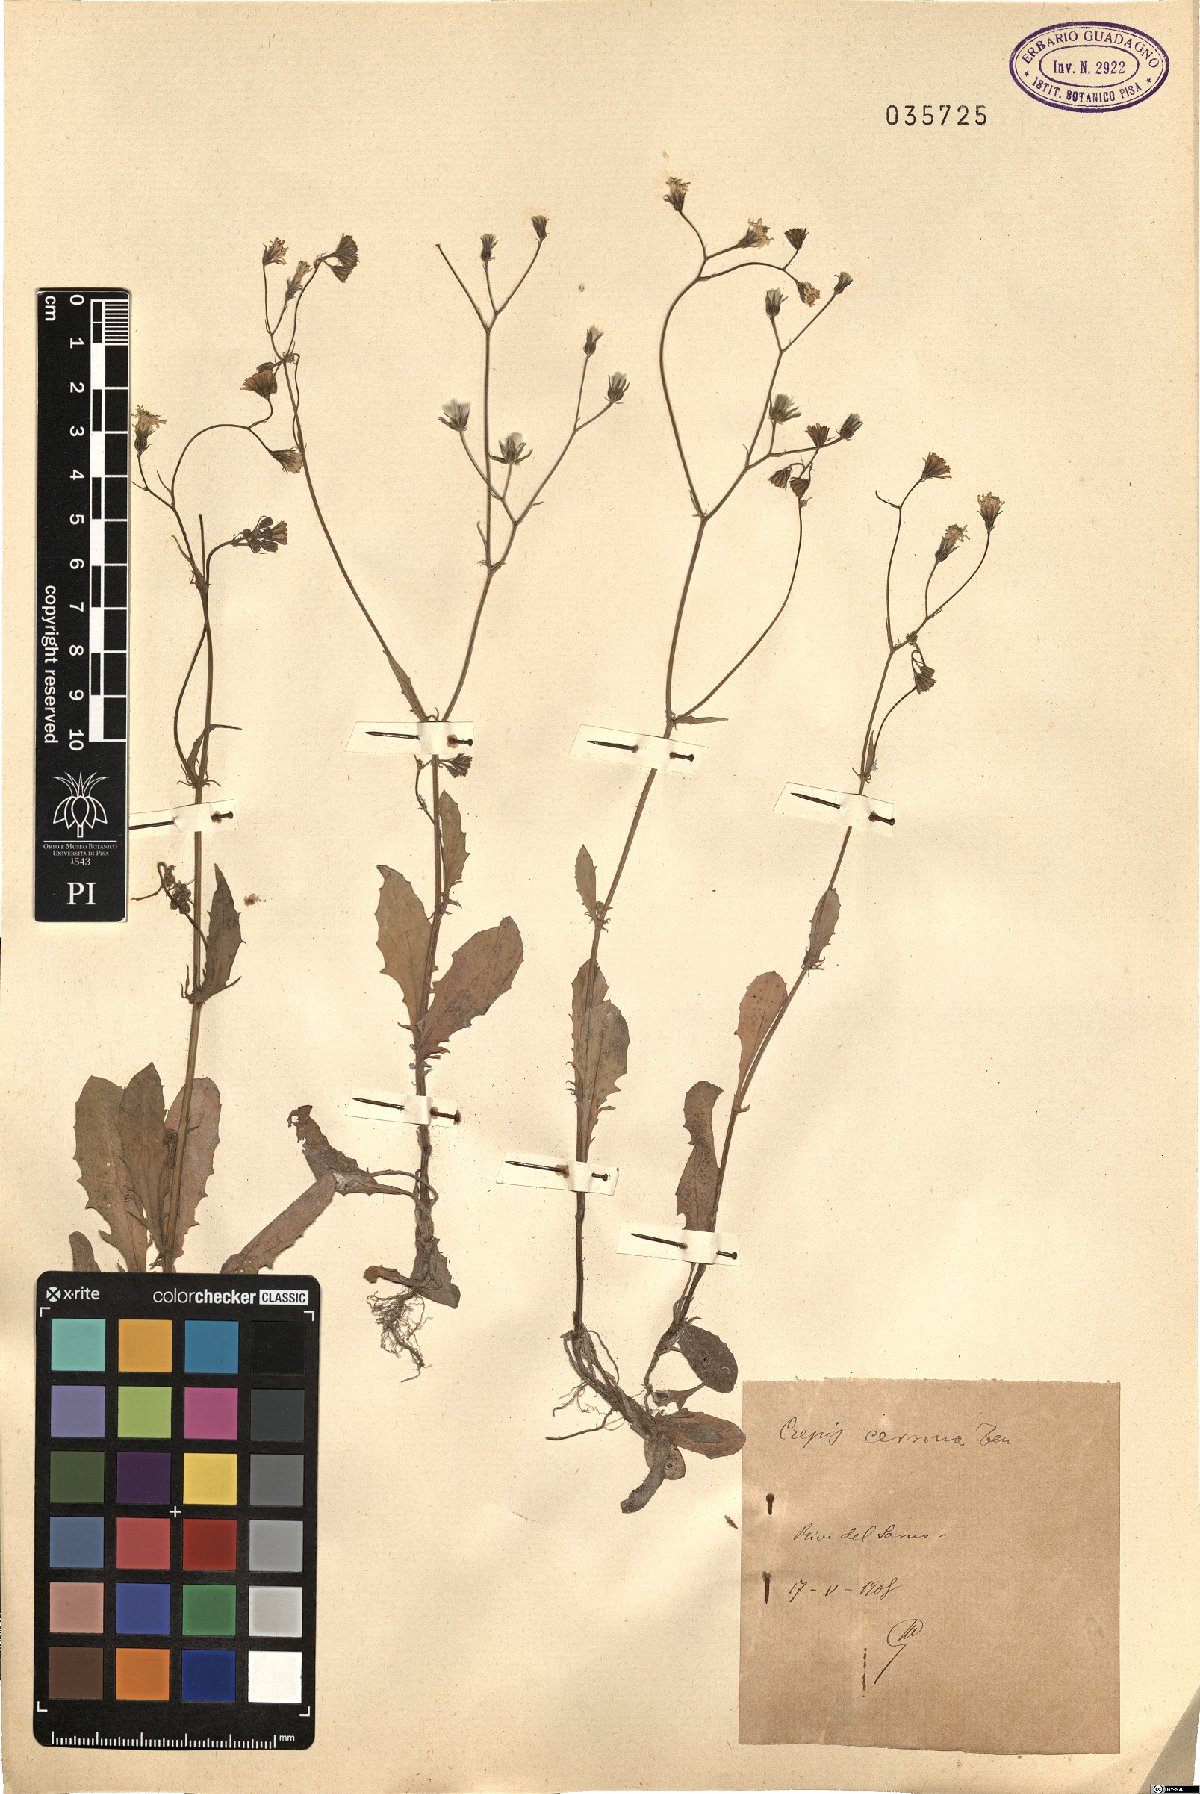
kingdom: Plantae
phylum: Tracheophyta
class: Magnoliopsida
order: Asterales
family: Asteraceae
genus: Crepis
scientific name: Crepis neglecta
